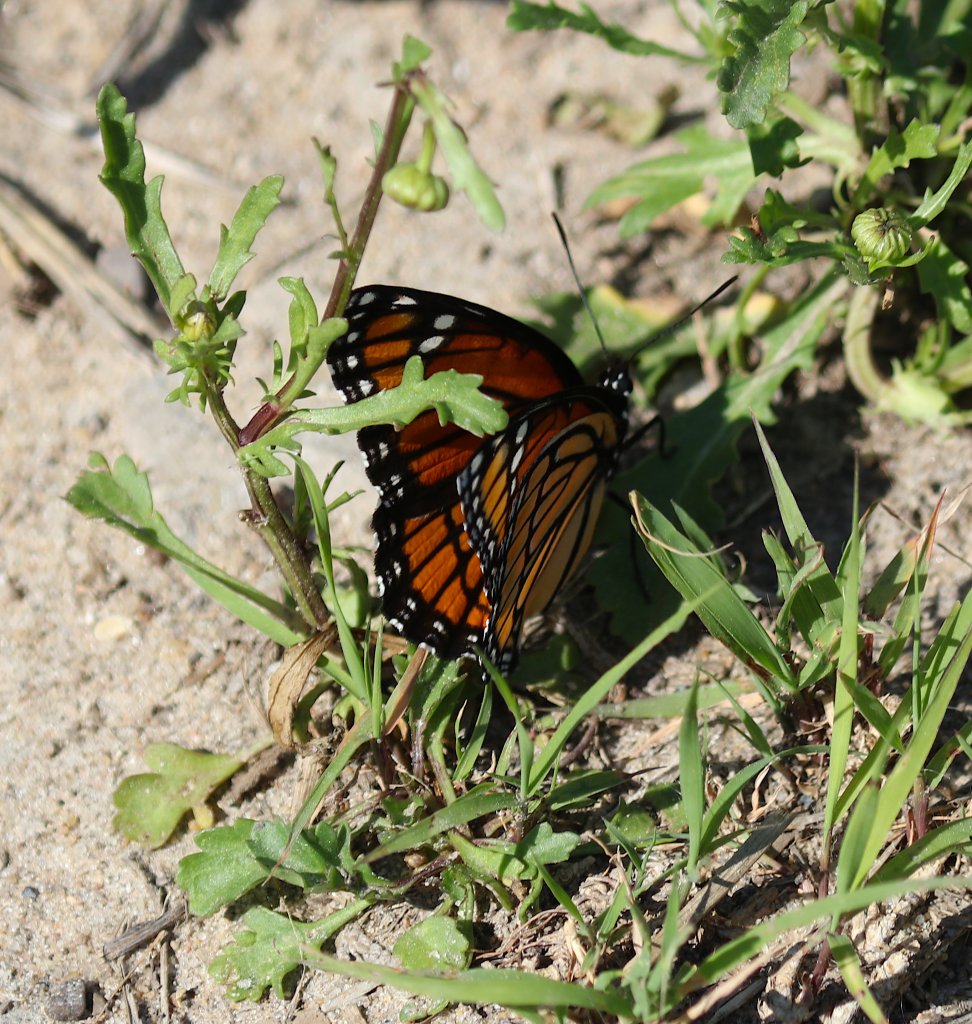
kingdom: Animalia
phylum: Arthropoda
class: Insecta
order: Lepidoptera
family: Nymphalidae
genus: Limenitis
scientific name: Limenitis archippus
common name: Viceroy
